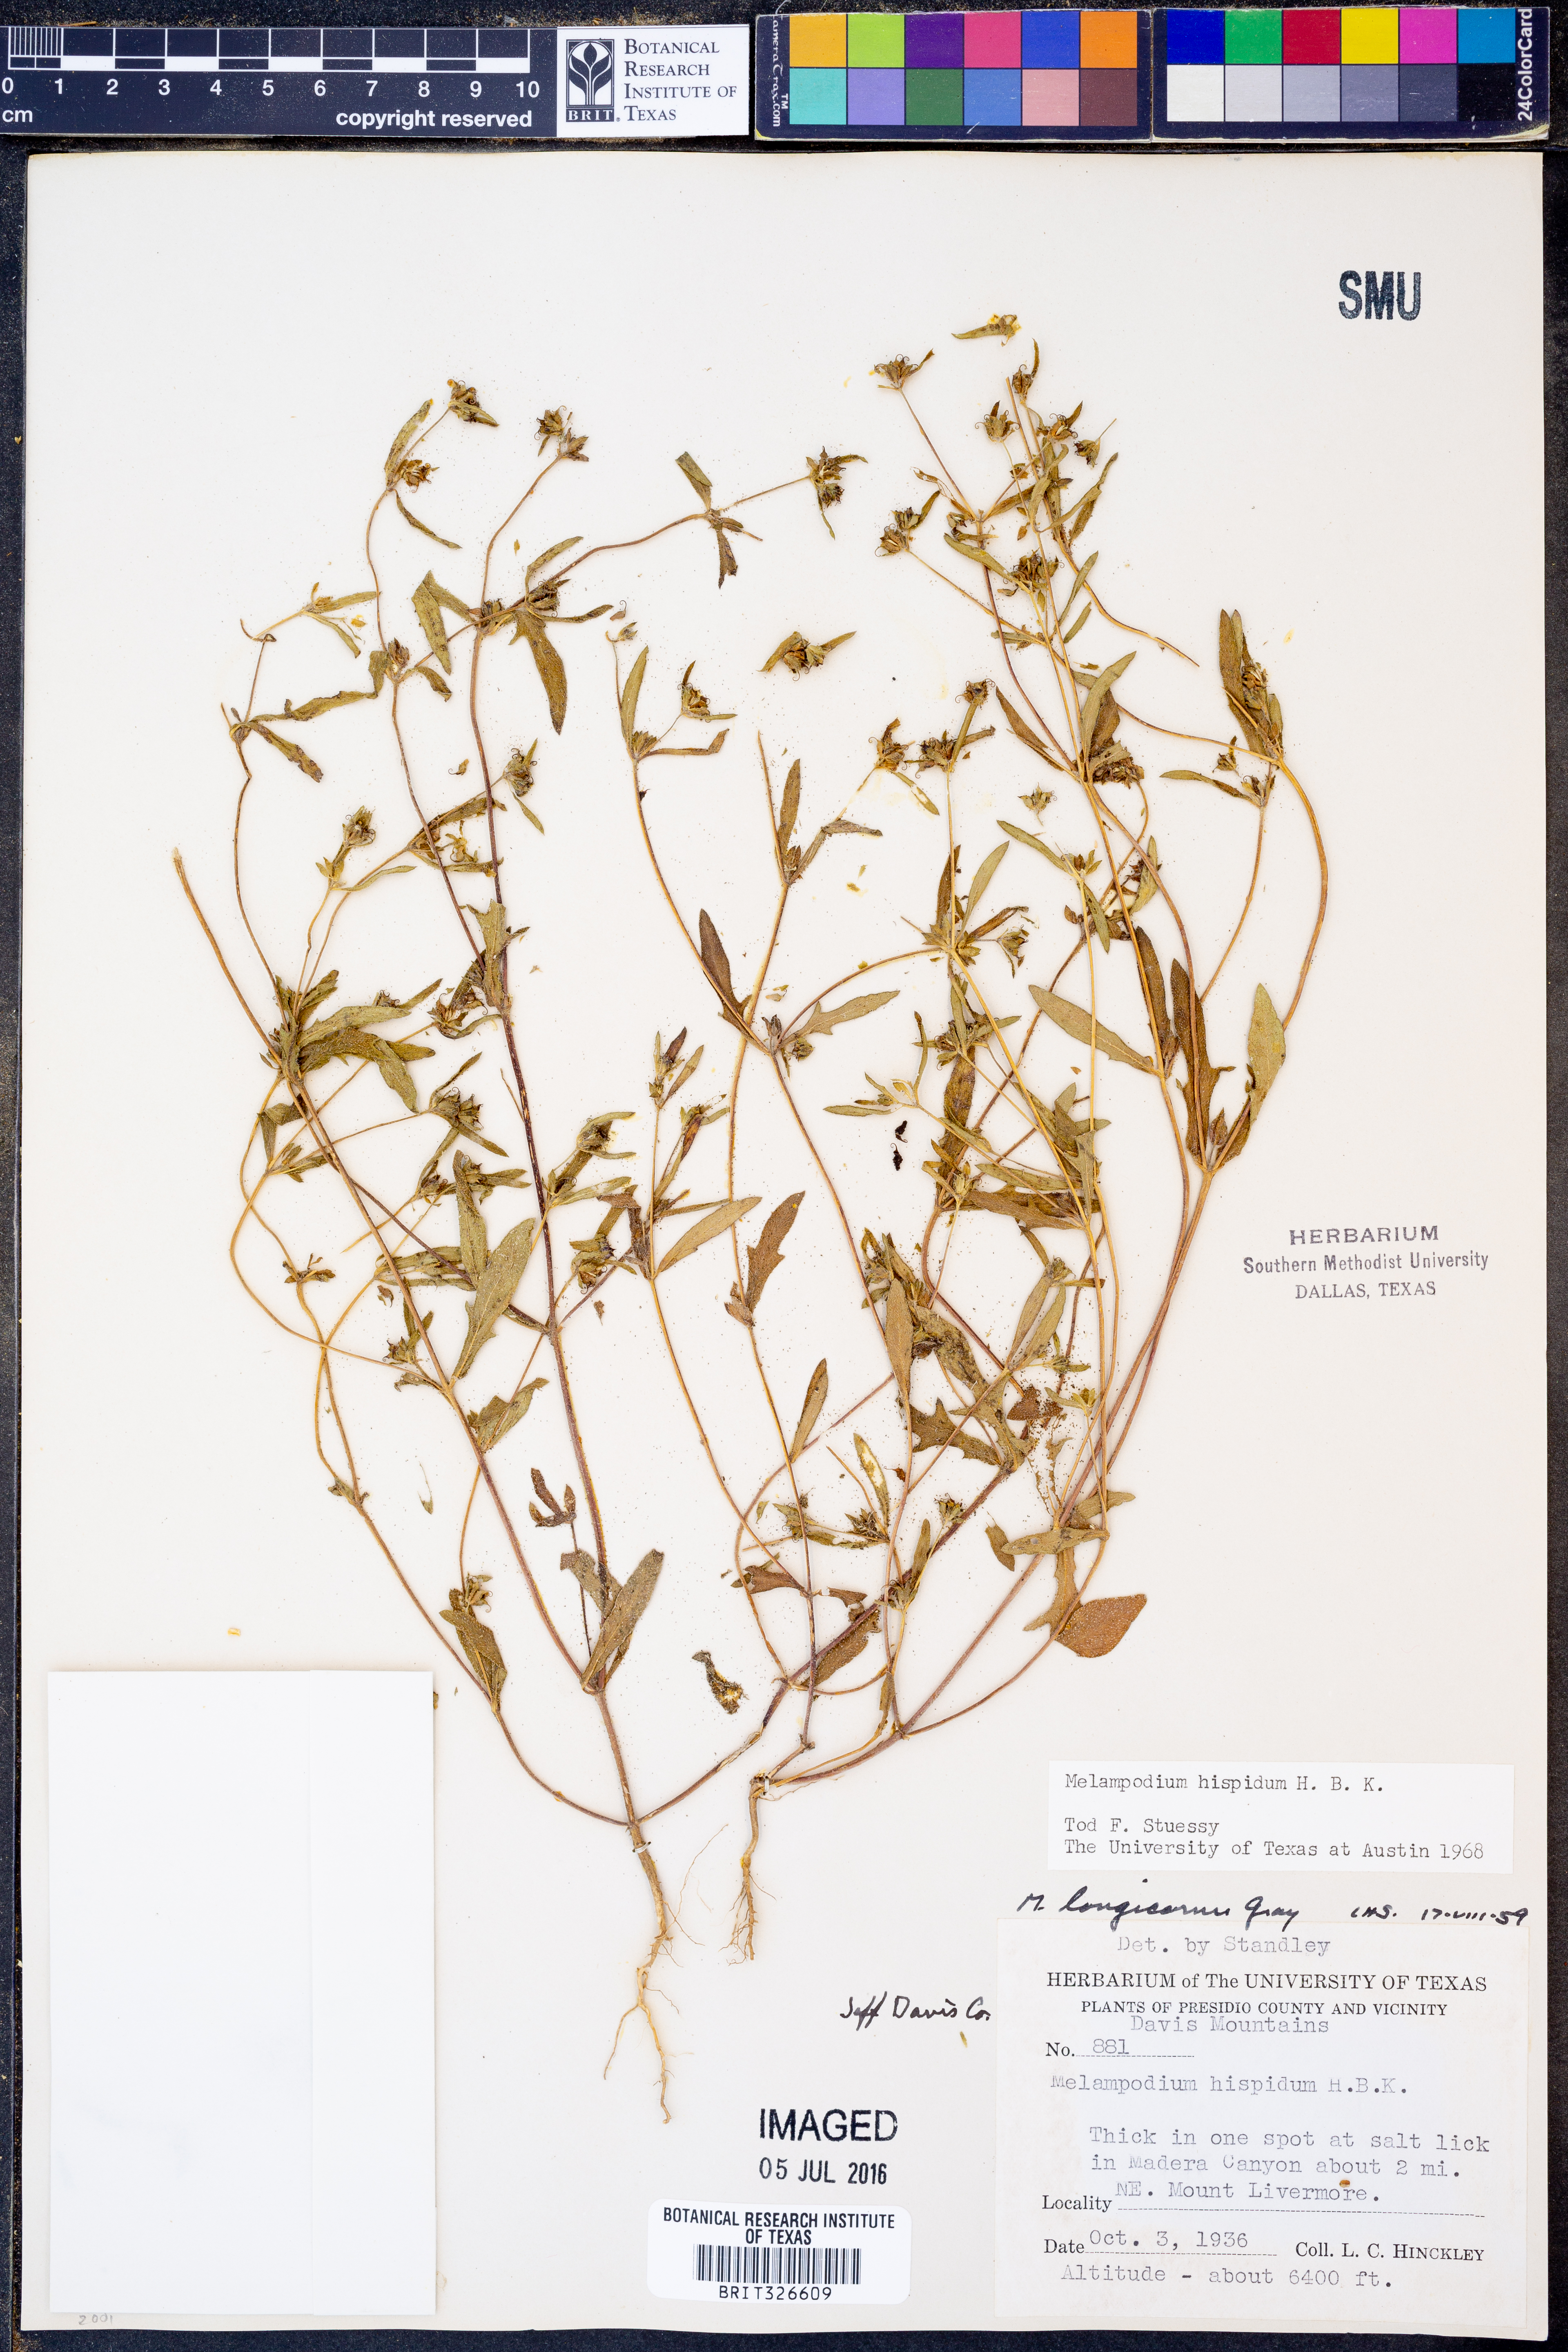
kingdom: Plantae
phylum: Tracheophyta
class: Magnoliopsida
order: Asterales
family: Asteraceae
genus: Melampodium
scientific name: Melampodium sericeum
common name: Rough blackfoot
